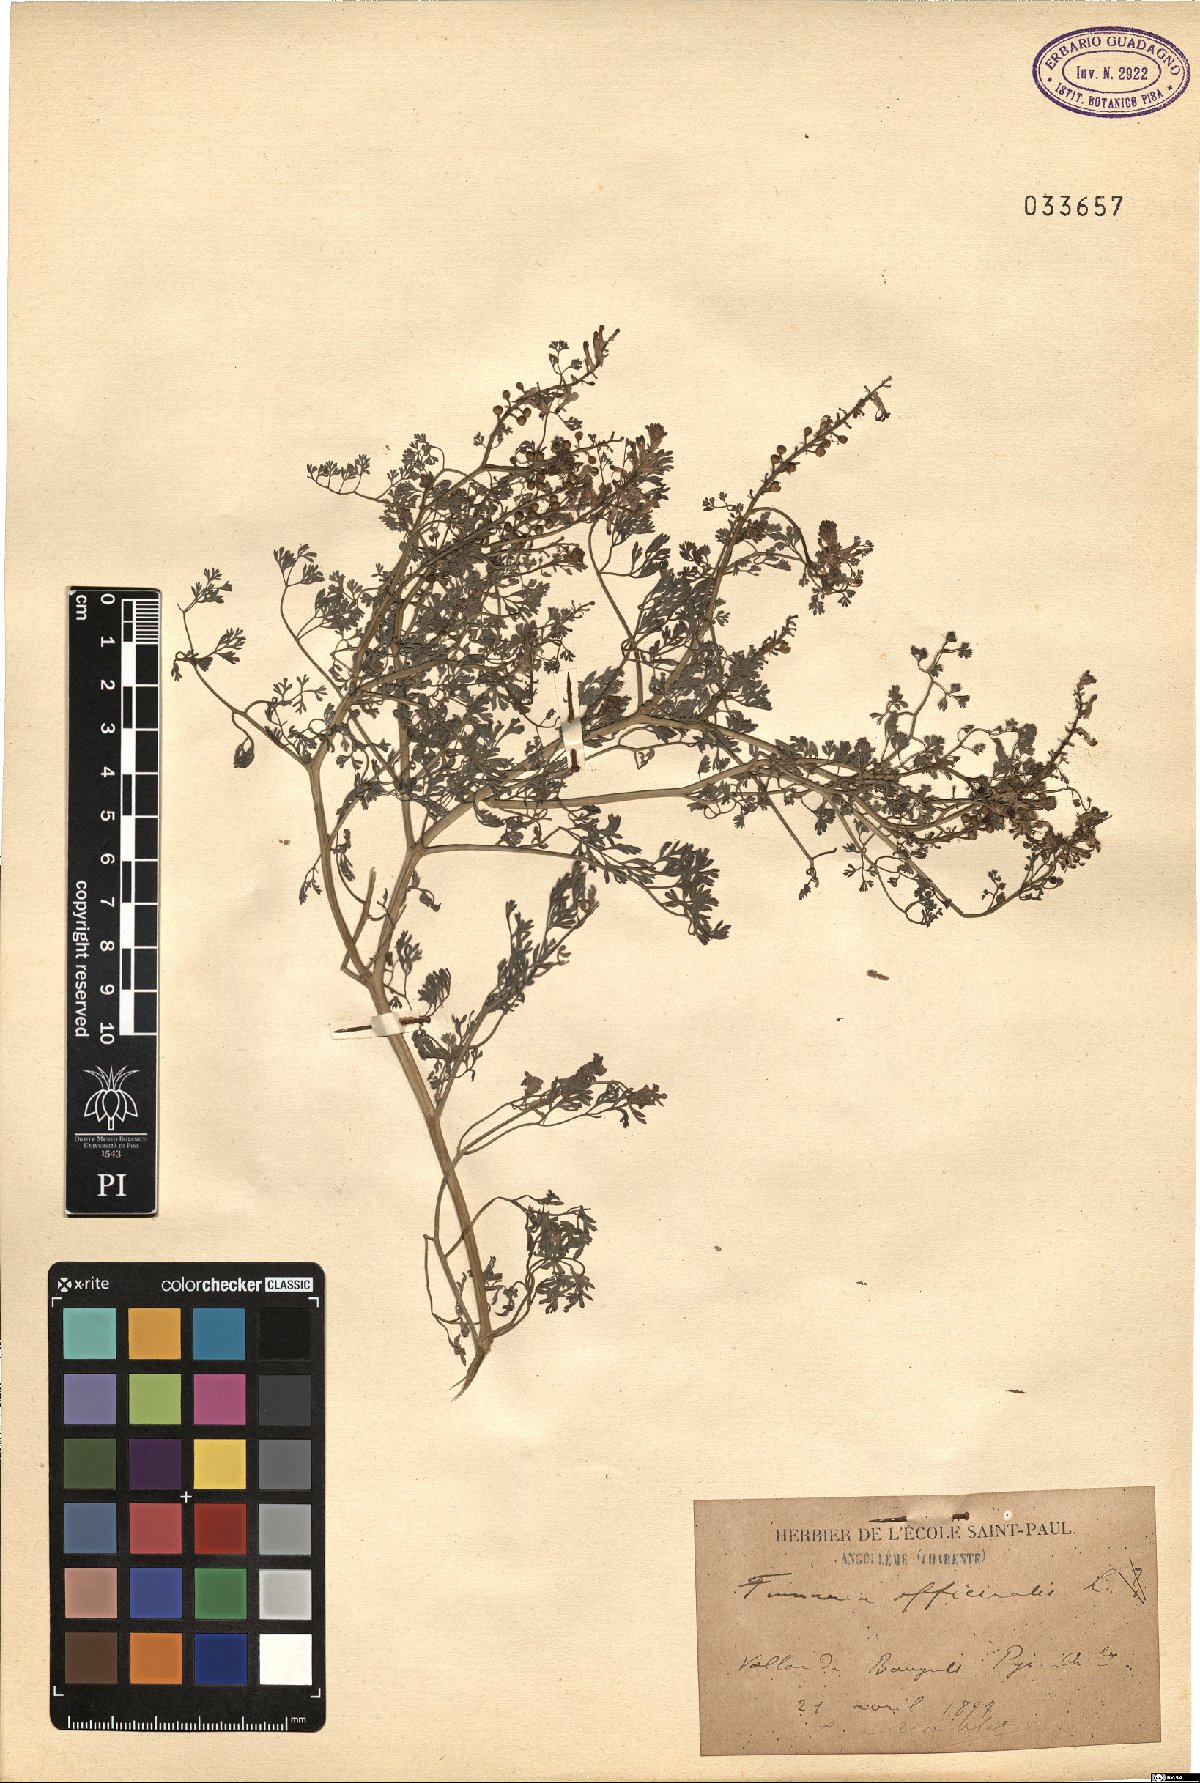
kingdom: Plantae
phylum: Tracheophyta
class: Magnoliopsida
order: Ranunculales
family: Papaveraceae
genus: Fumaria
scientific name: Fumaria officinalis
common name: Common fumitory
